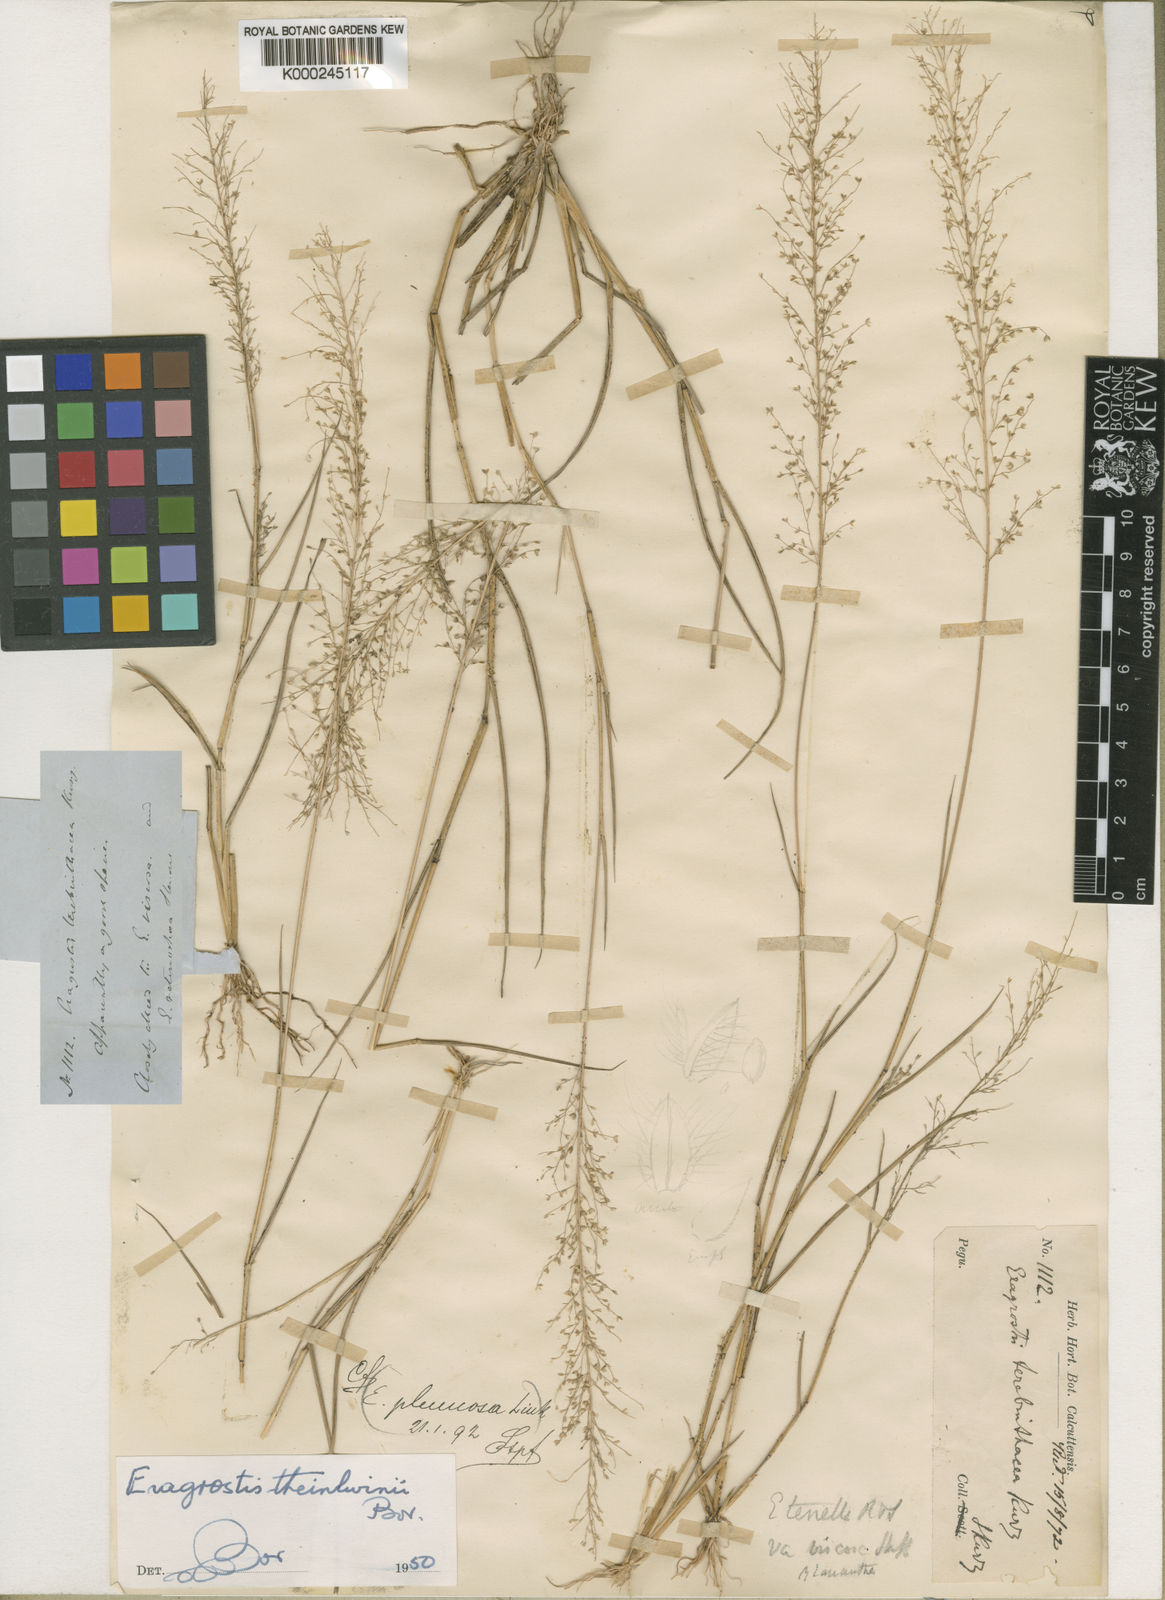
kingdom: Plantae
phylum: Tracheophyta
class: Liliopsida
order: Poales
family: Poaceae
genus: Eragrostis
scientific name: Eragrostis theinlwinii
